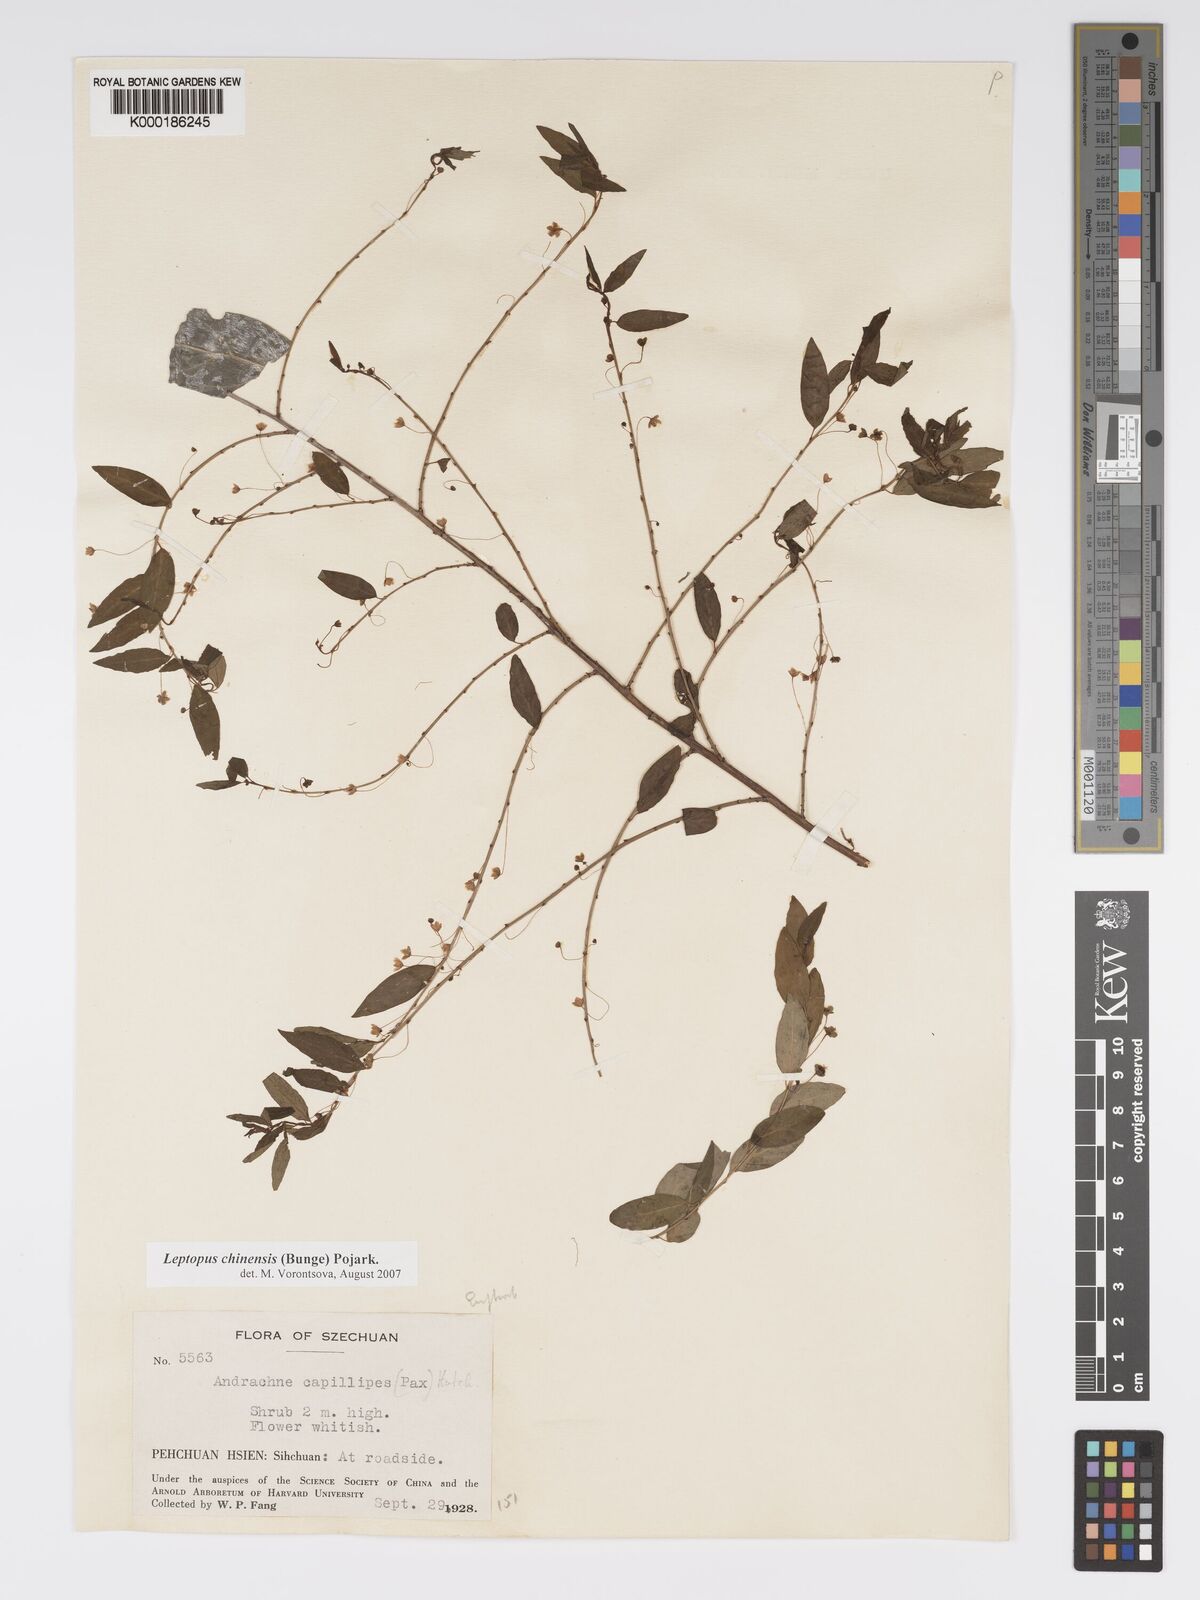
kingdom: Plantae
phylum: Tracheophyta
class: Magnoliopsida
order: Malpighiales
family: Phyllanthaceae
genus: Leptopus
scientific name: Leptopus chinensis
